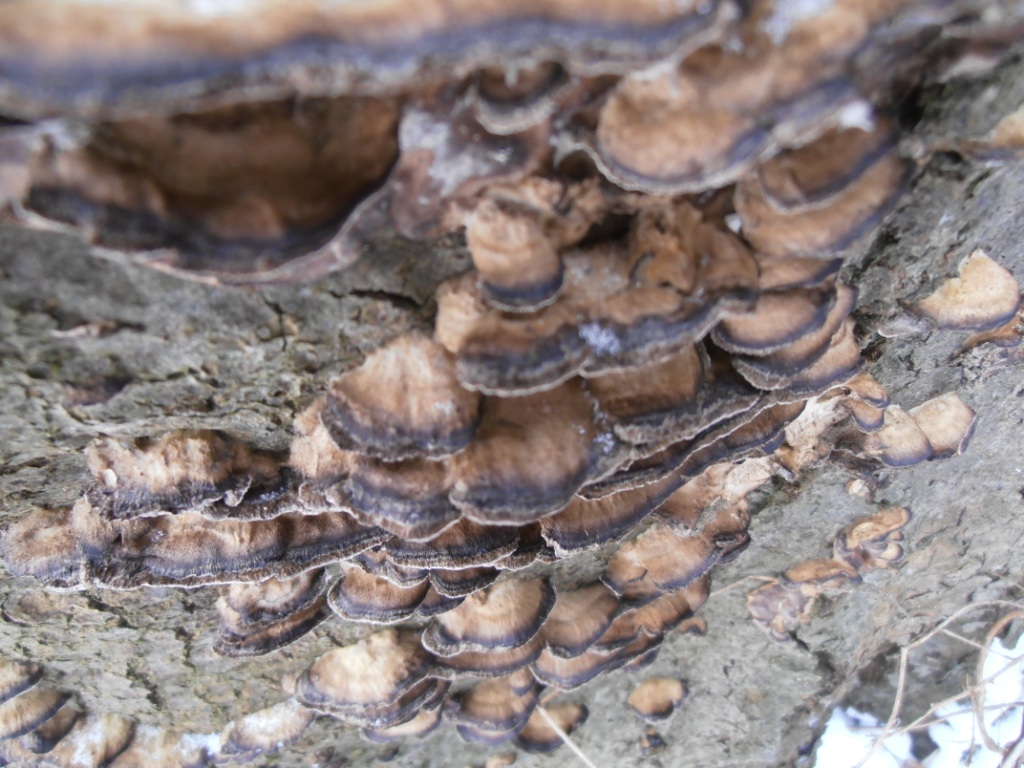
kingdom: Fungi
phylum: Basidiomycota
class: Agaricomycetes
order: Polyporales
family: Phanerochaetaceae
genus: Bjerkandera
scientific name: Bjerkandera adusta
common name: sveden sodporesvamp
